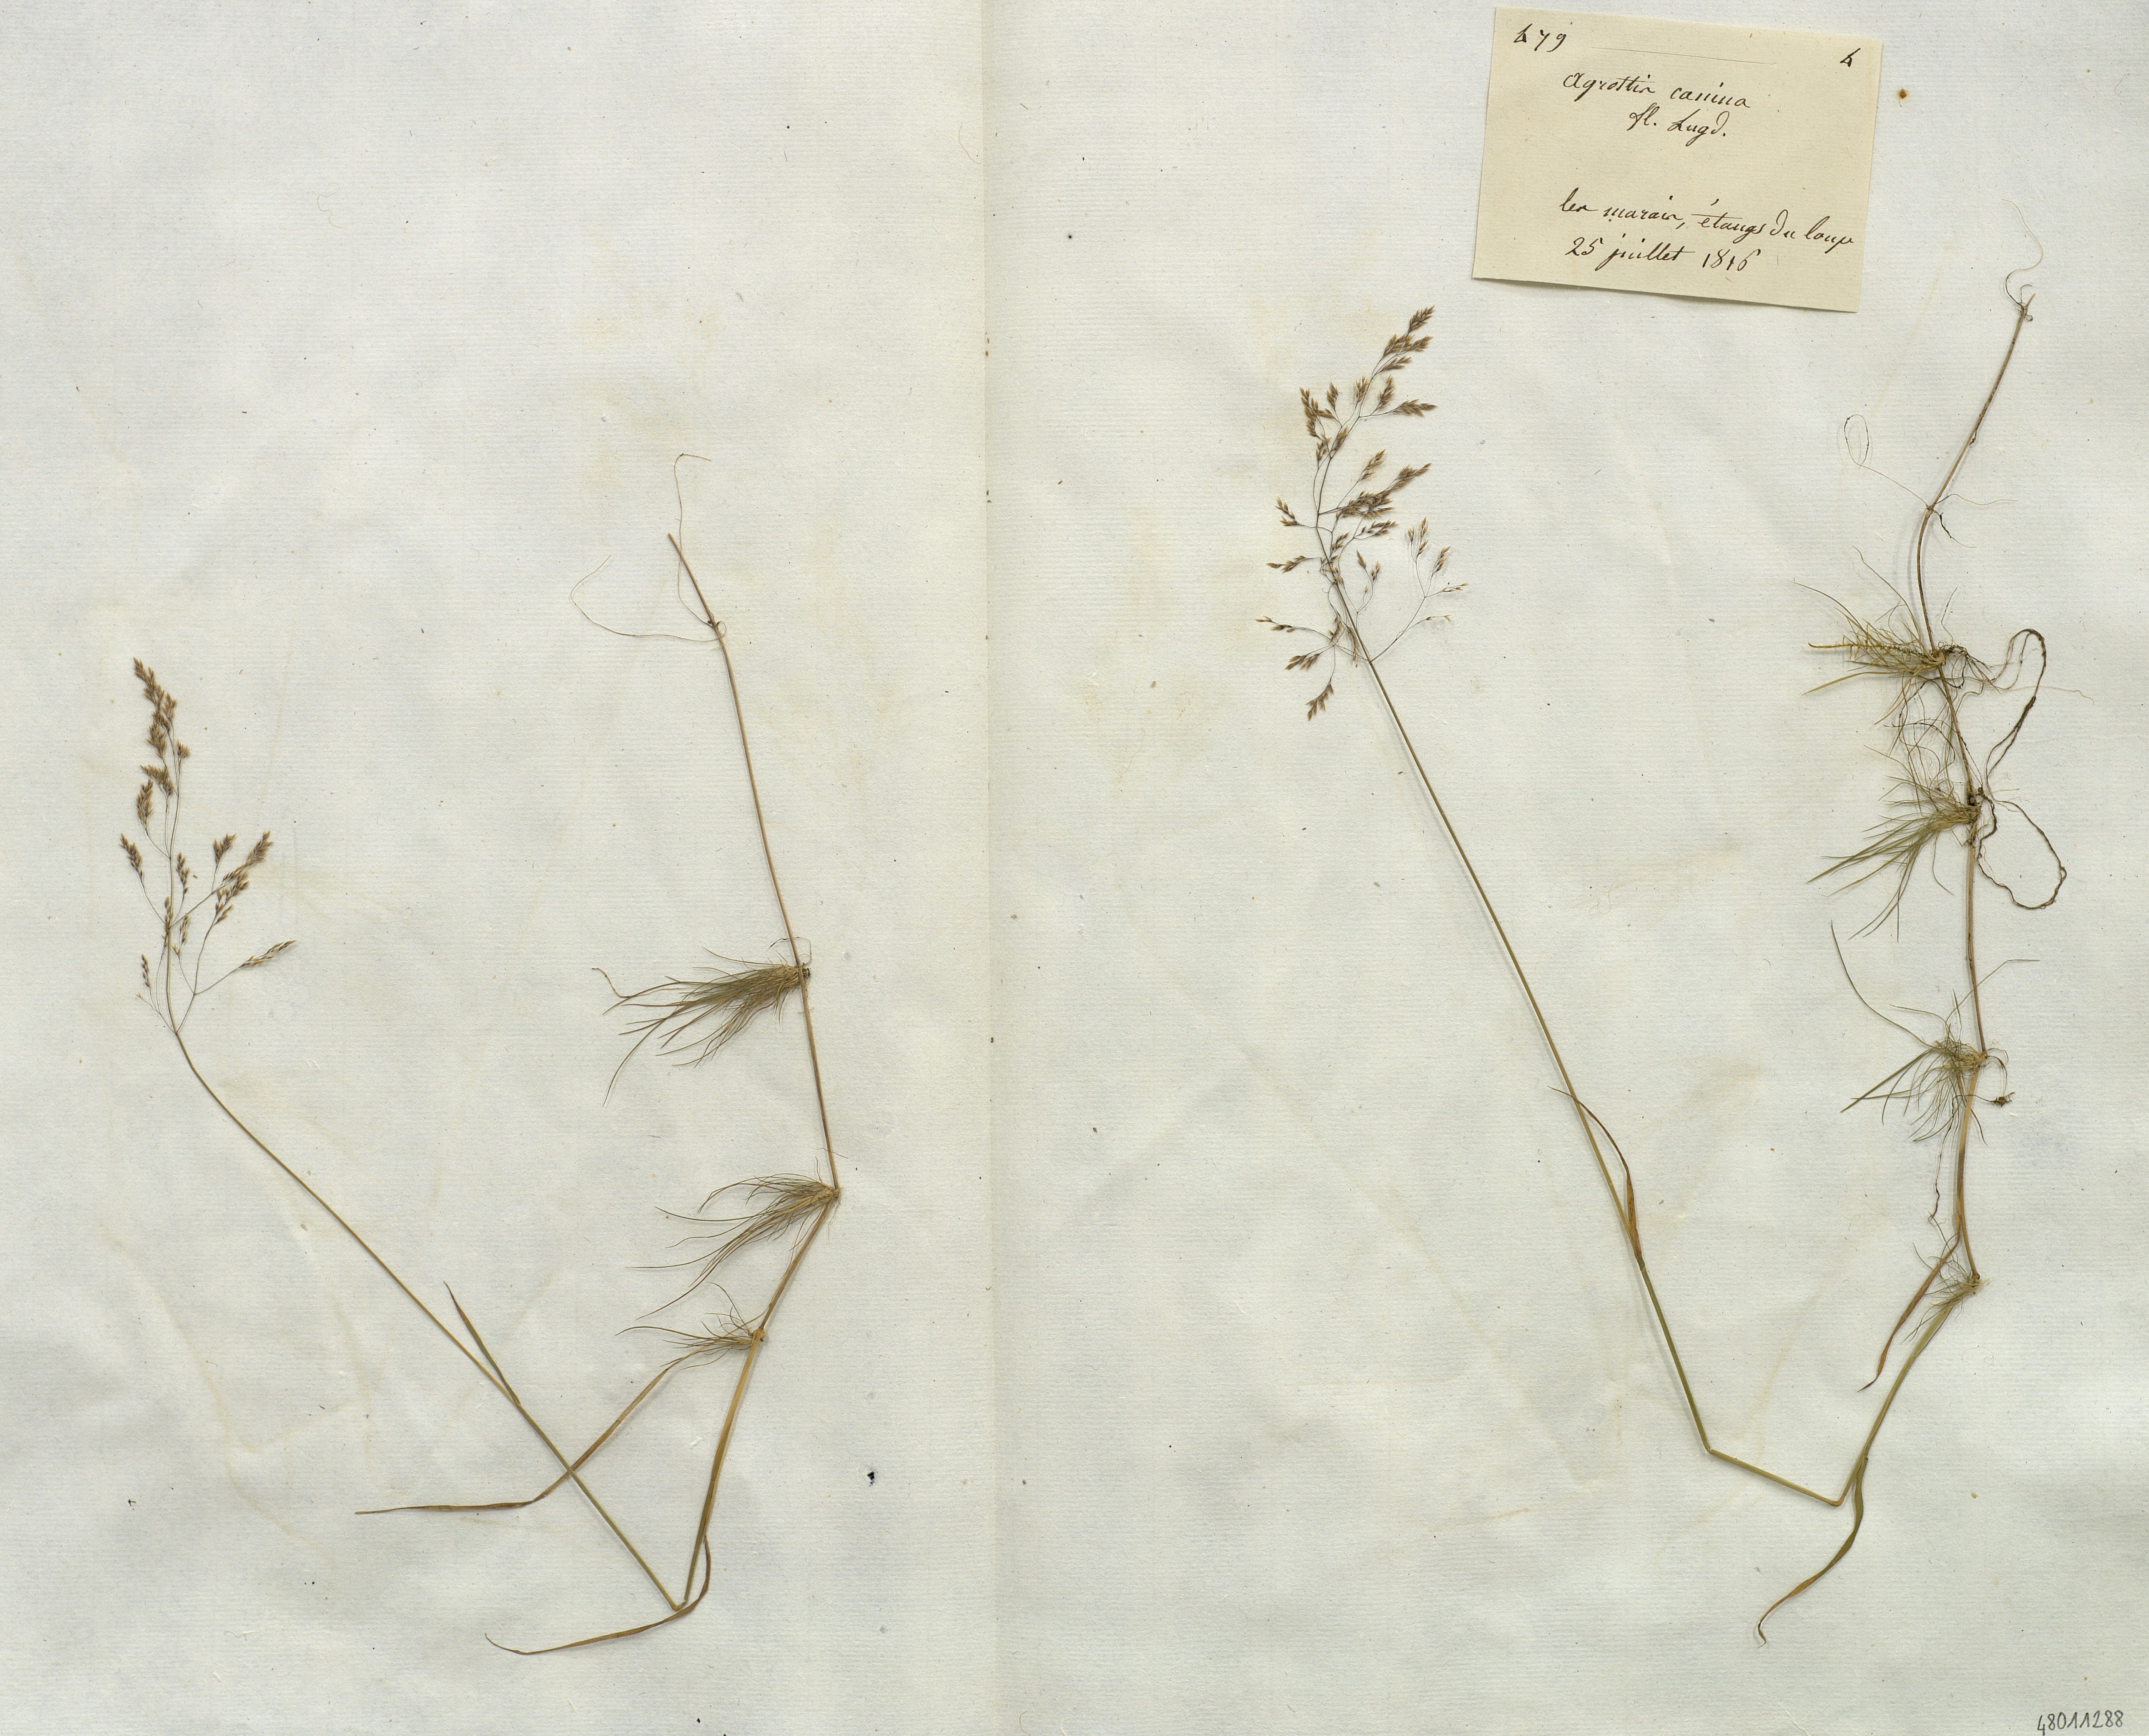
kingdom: Plantae
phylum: Tracheophyta
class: Liliopsida
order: Poales
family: Poaceae
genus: Agrostis
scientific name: Agrostis canina
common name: Velvet bent
